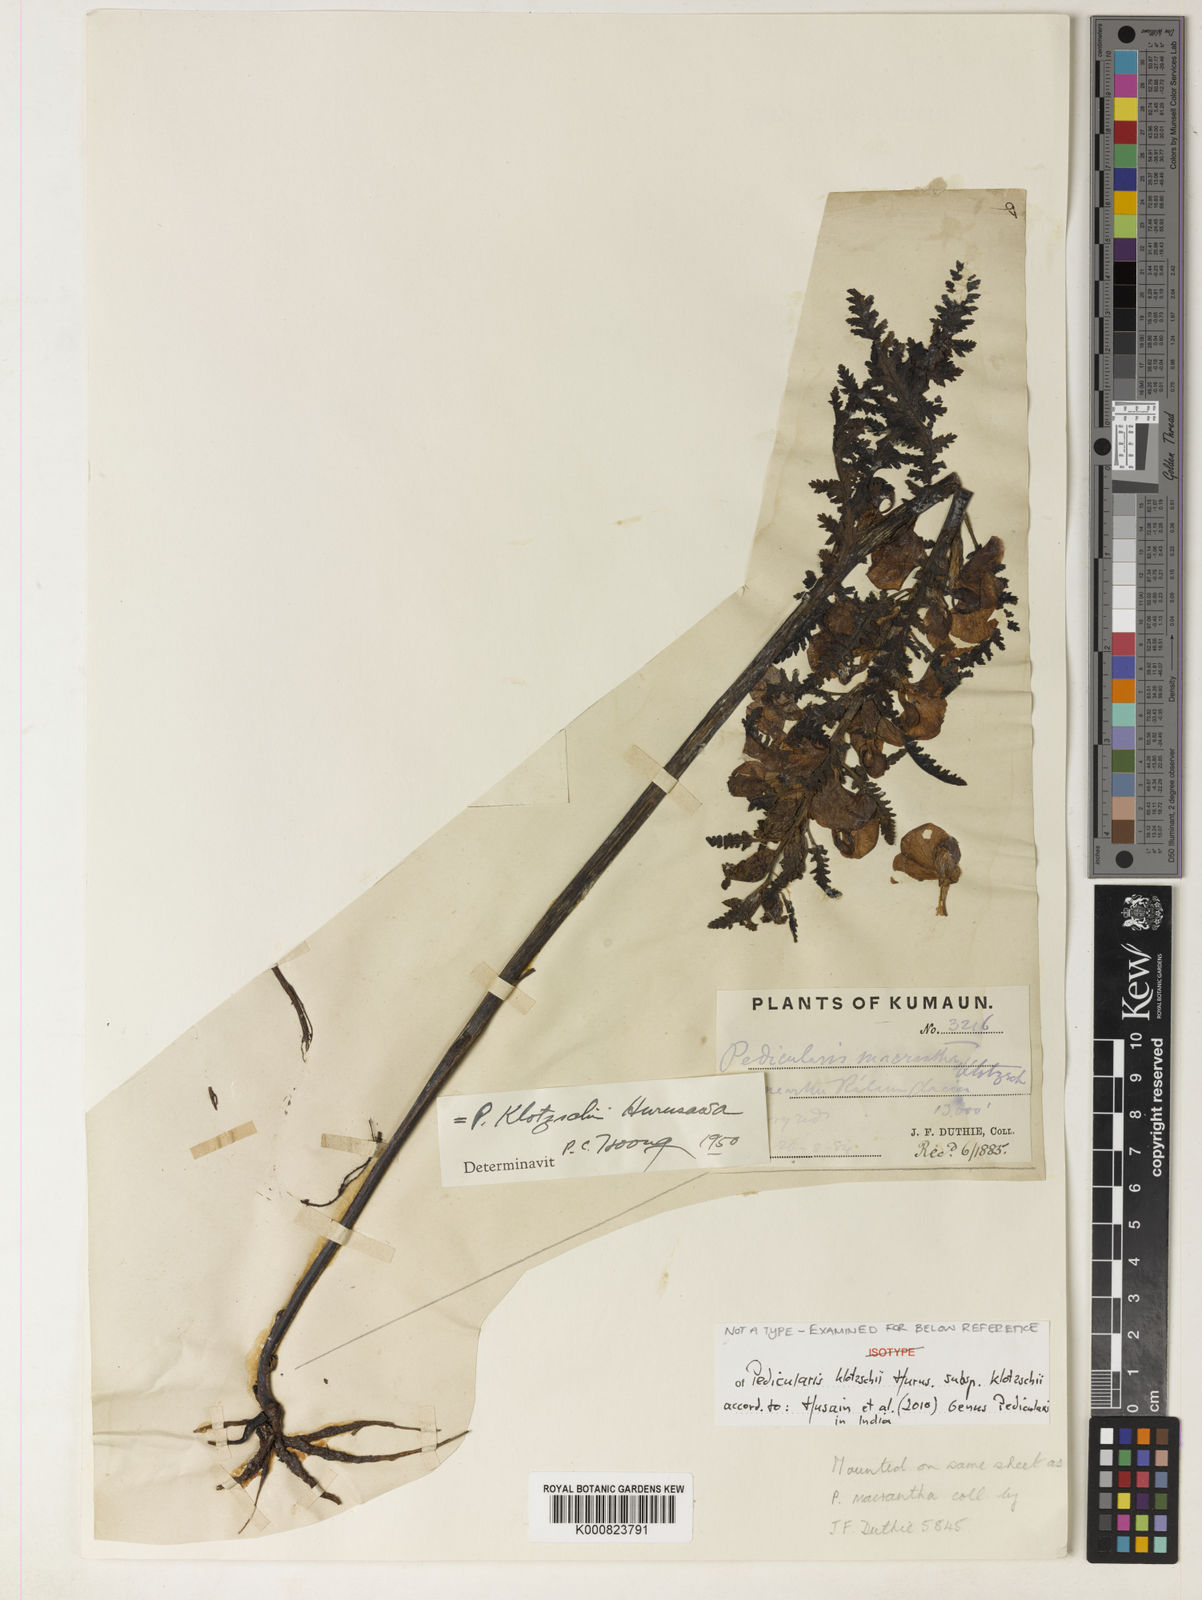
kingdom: Plantae
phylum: Tracheophyta
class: Magnoliopsida
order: Lamiales
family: Orobanchaceae
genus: Pedicularis
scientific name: Pedicularis klotzschii
